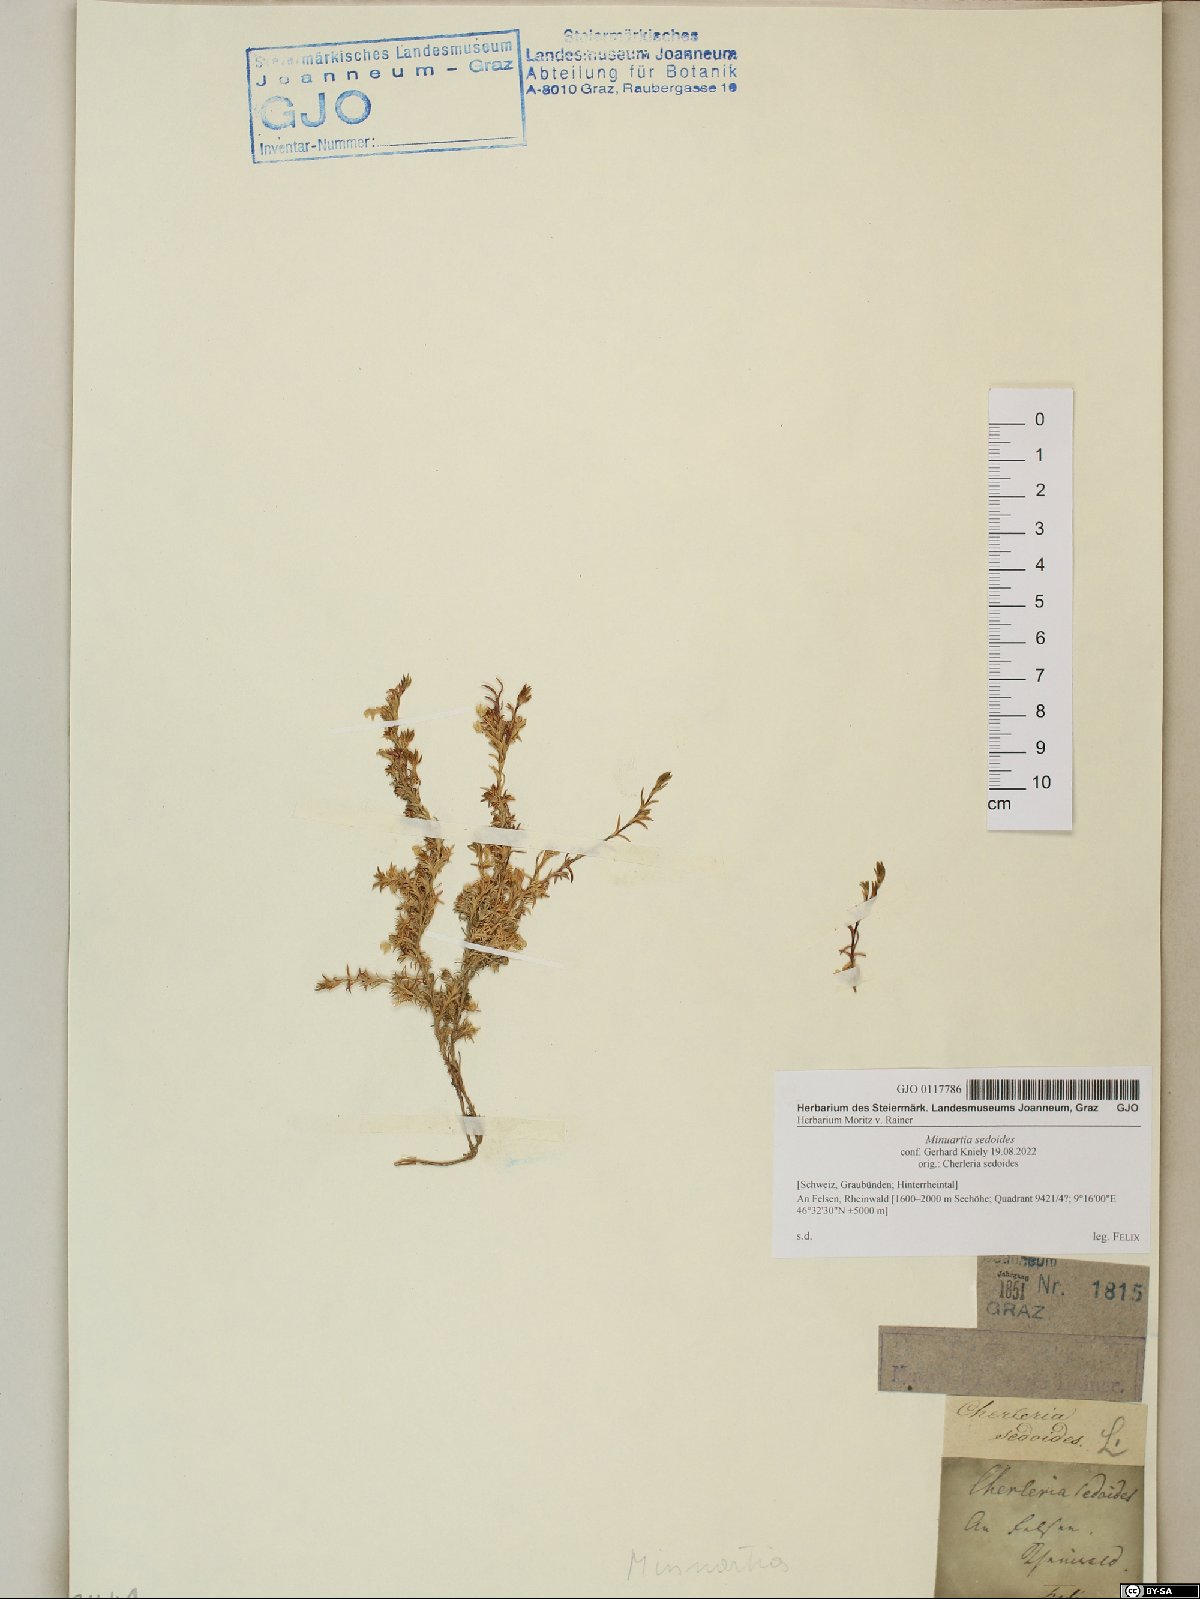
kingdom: Plantae
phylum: Tracheophyta
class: Magnoliopsida
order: Caryophyllales
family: Caryophyllaceae
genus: Cherleria
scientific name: Cherleria sedoides
